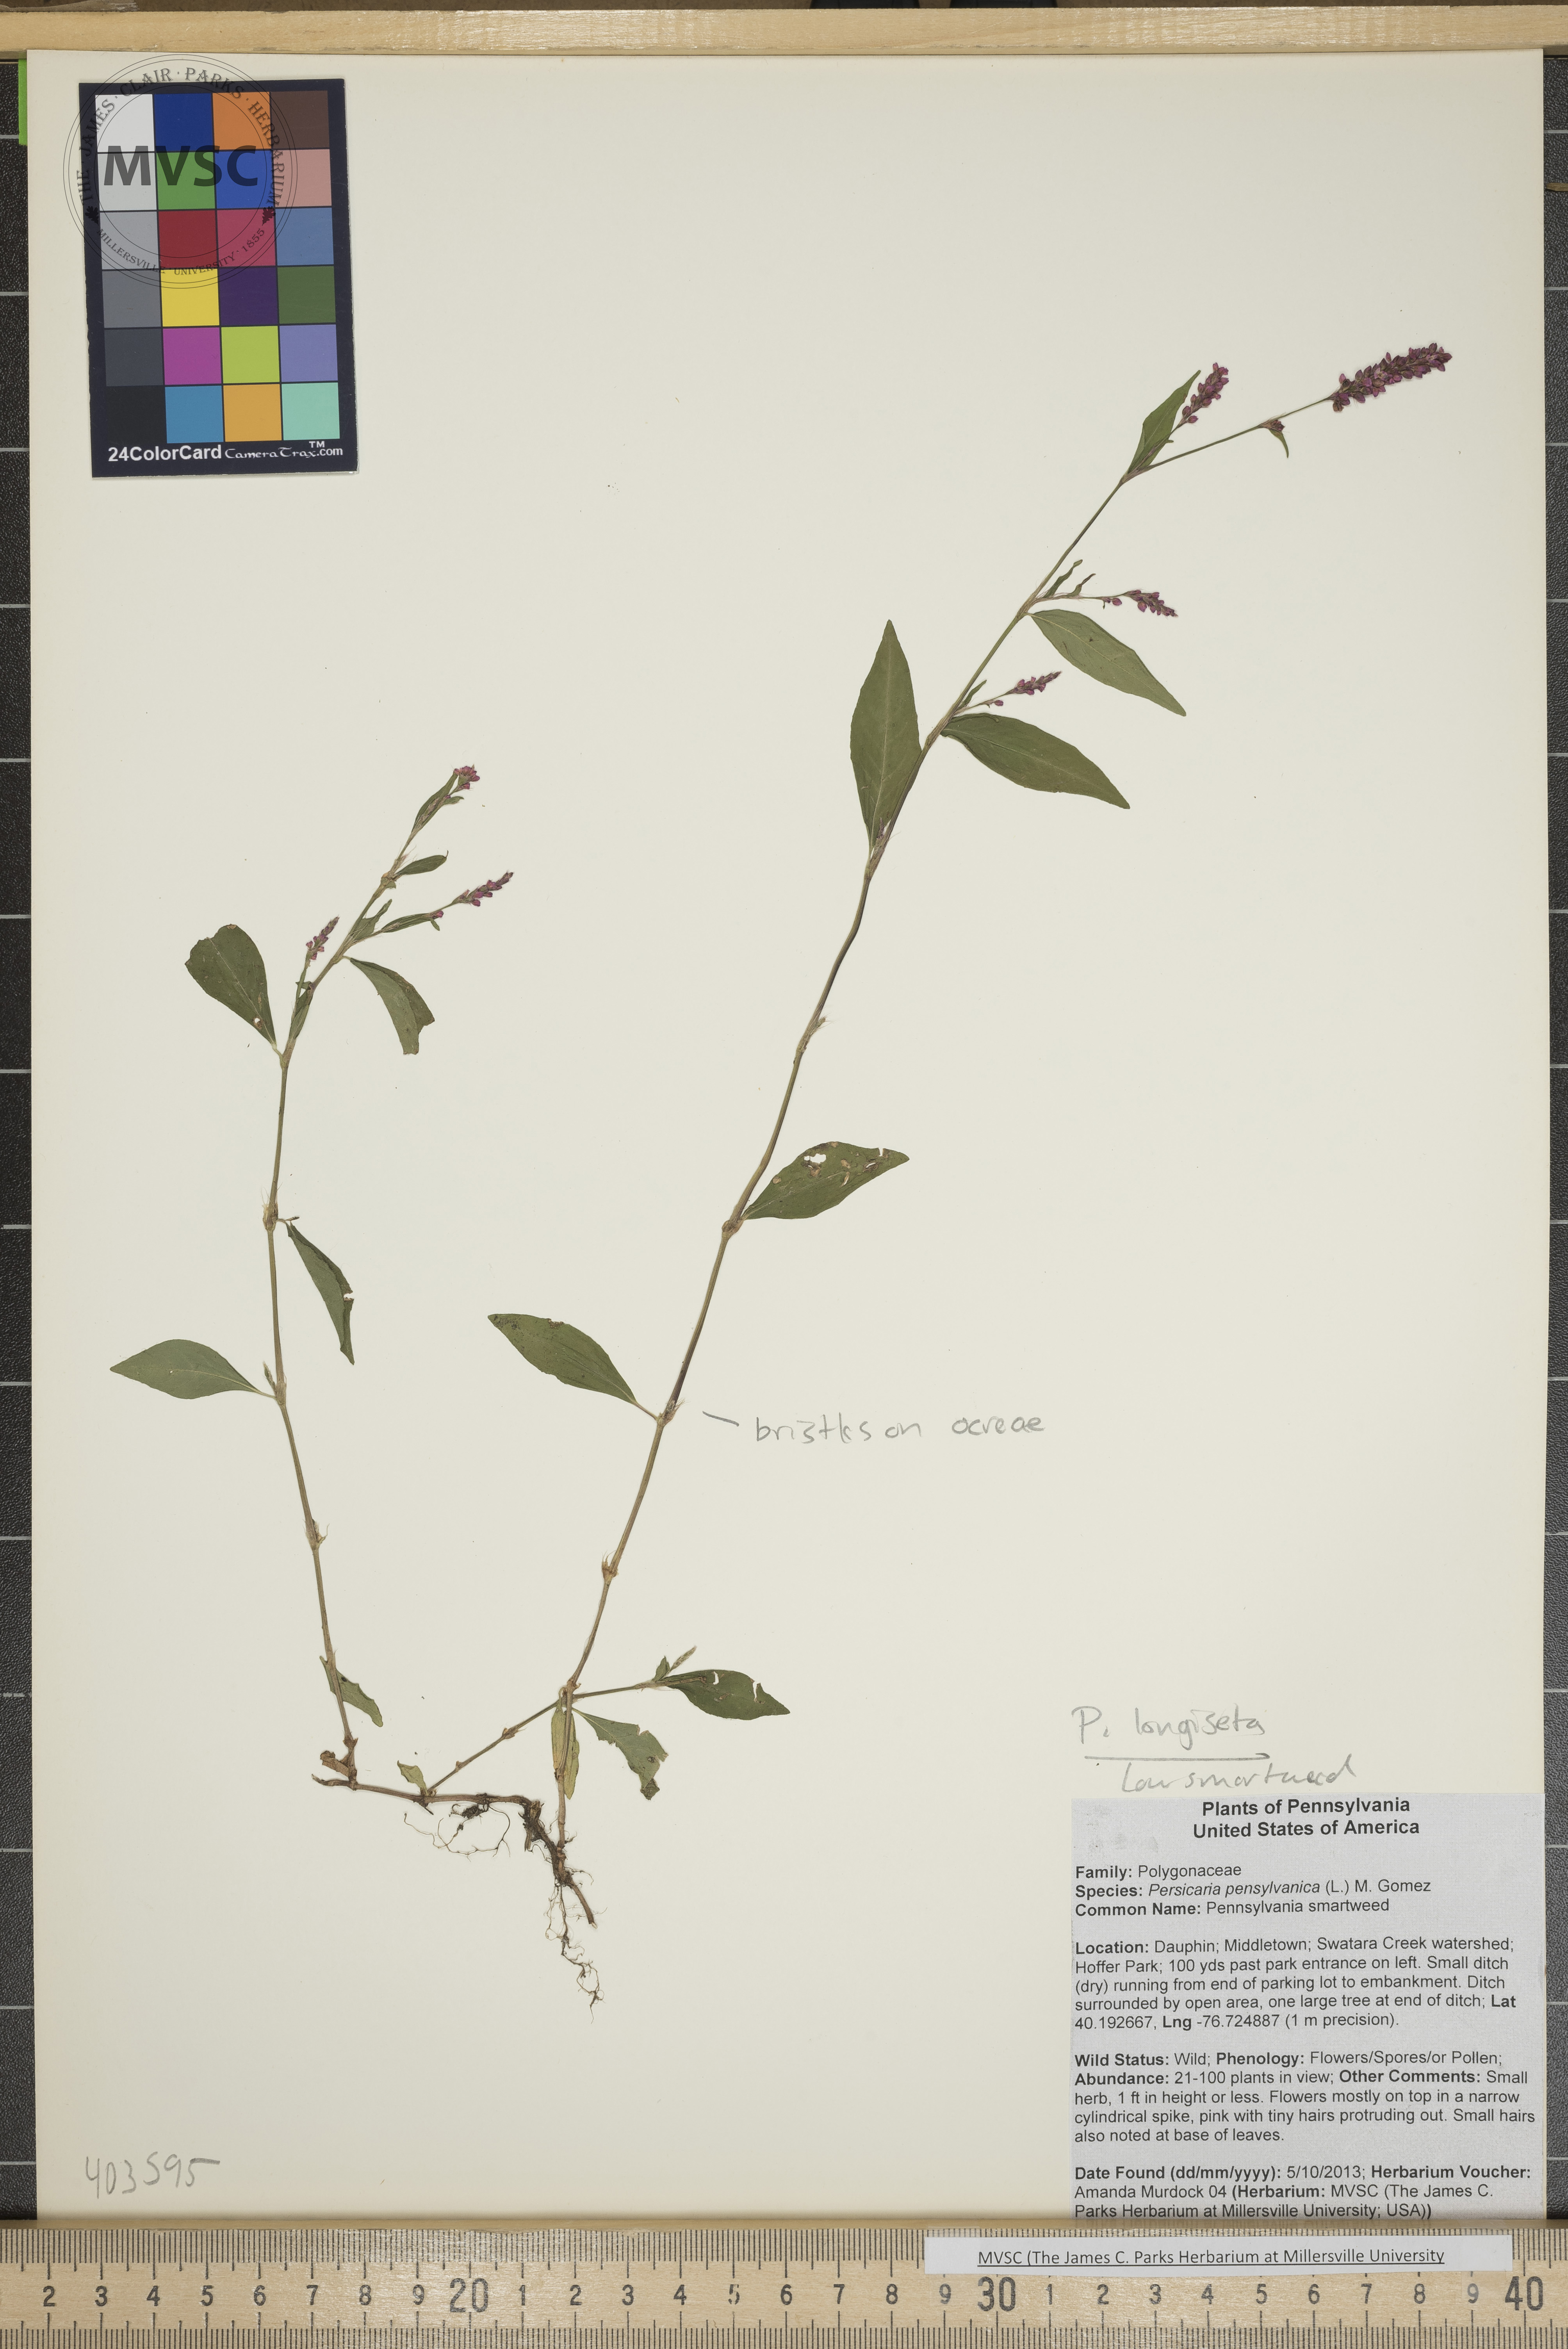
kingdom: Plantae
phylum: Tracheophyta
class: Magnoliopsida
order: Caryophyllales
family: Polygonaceae
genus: Persicaria
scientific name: Persicaria longiseta
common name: Smartweed
